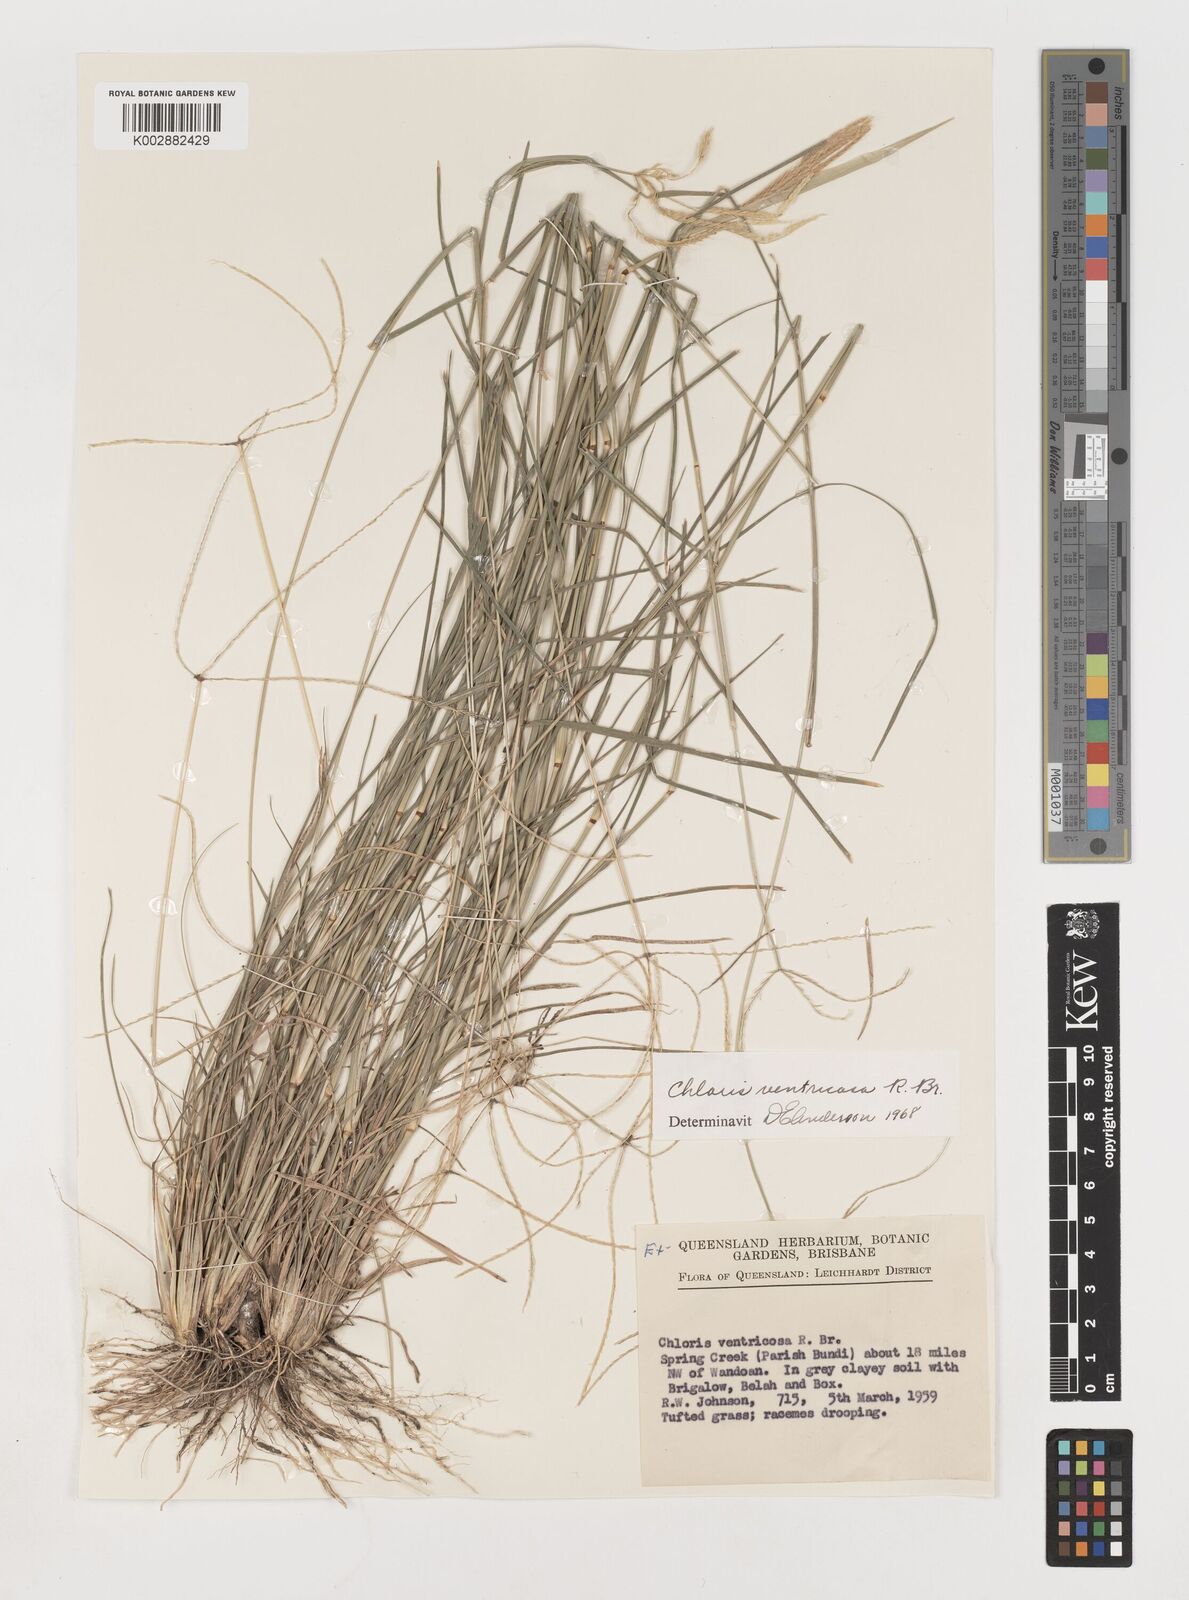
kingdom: Plantae
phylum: Tracheophyta
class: Liliopsida
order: Poales
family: Poaceae
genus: Chloris
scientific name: Chloris ventricosa
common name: Australian windmill grass
